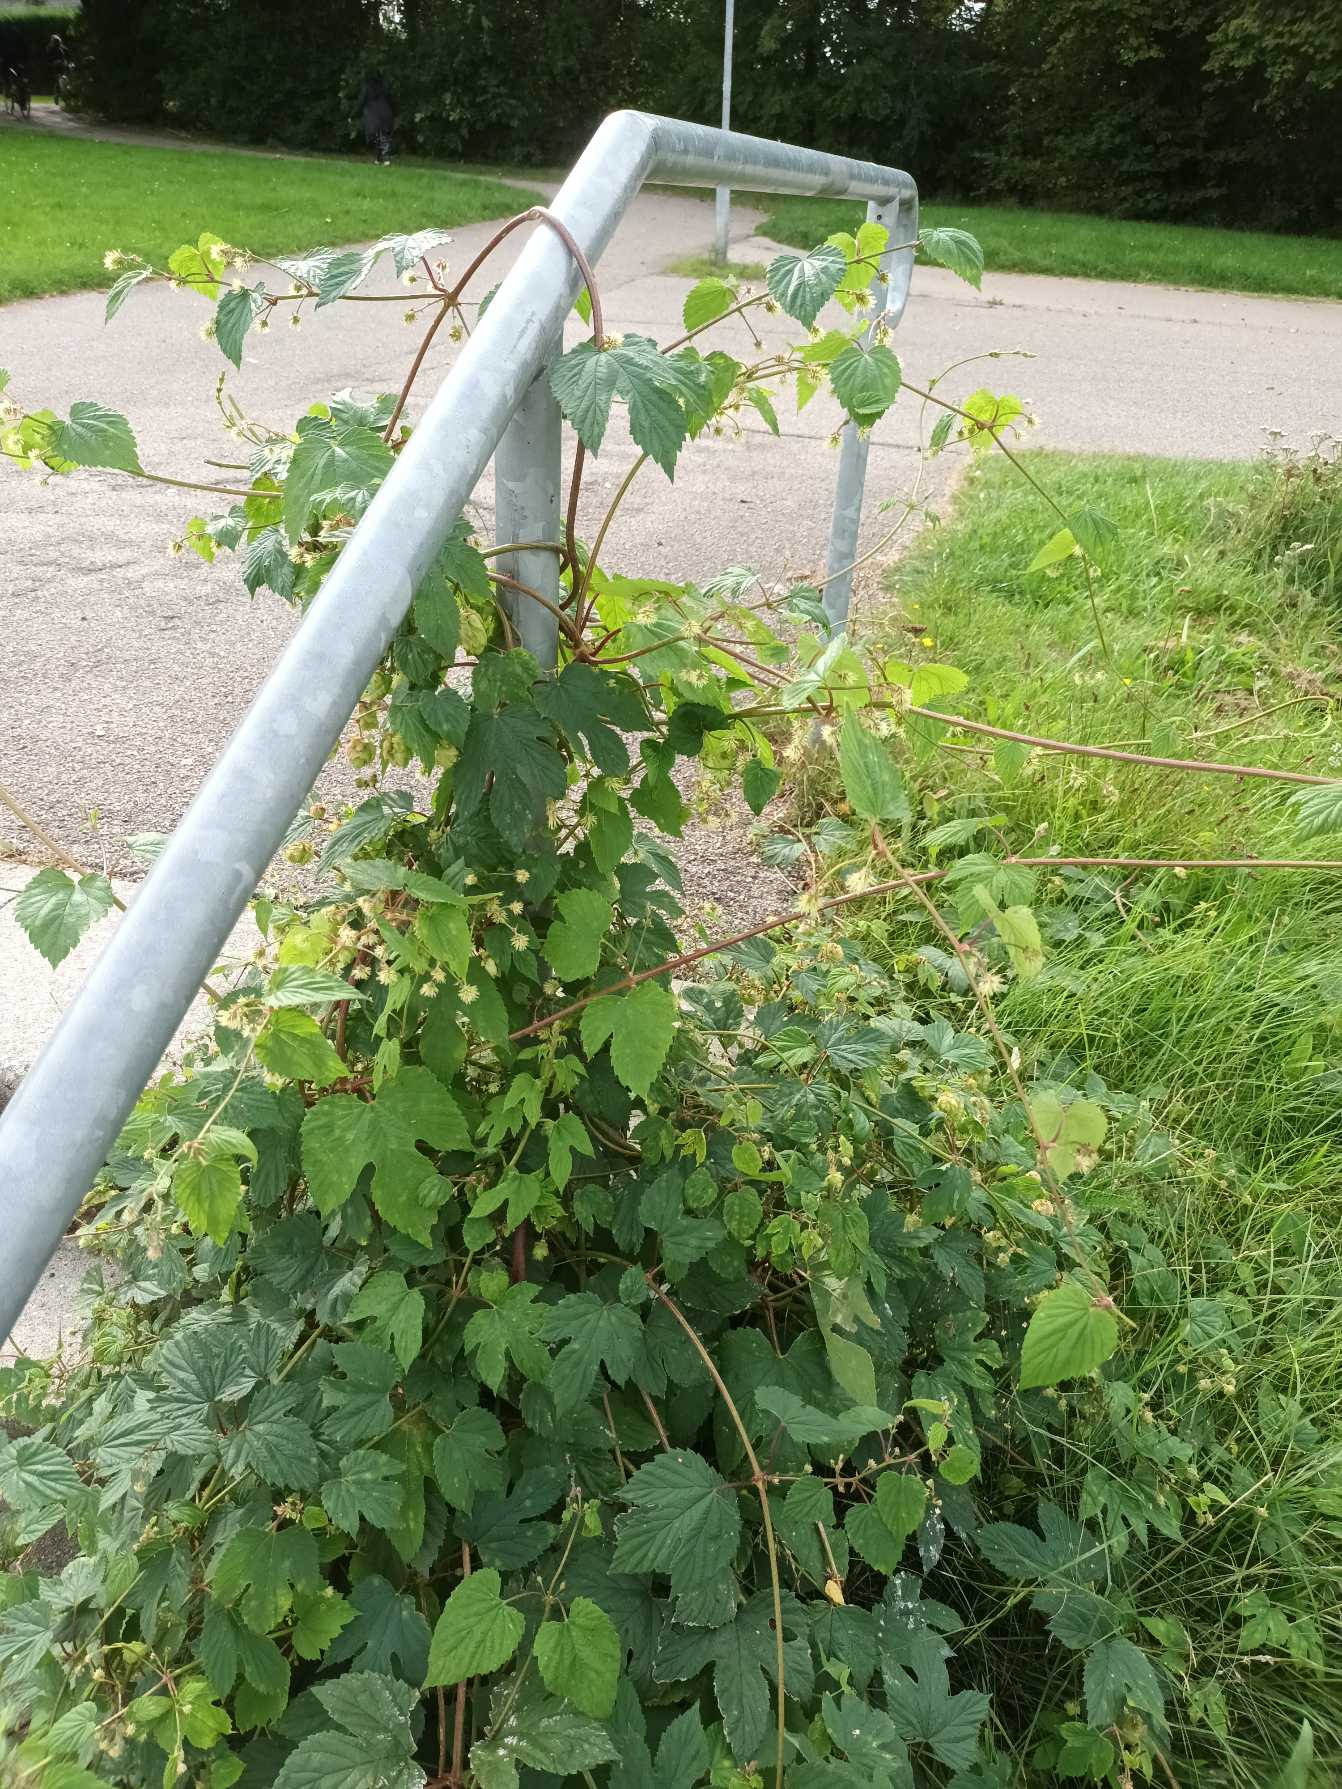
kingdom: Plantae
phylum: Tracheophyta
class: Magnoliopsida
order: Rosales
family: Cannabaceae
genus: Humulus
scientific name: Humulus lupulus
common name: Humle
